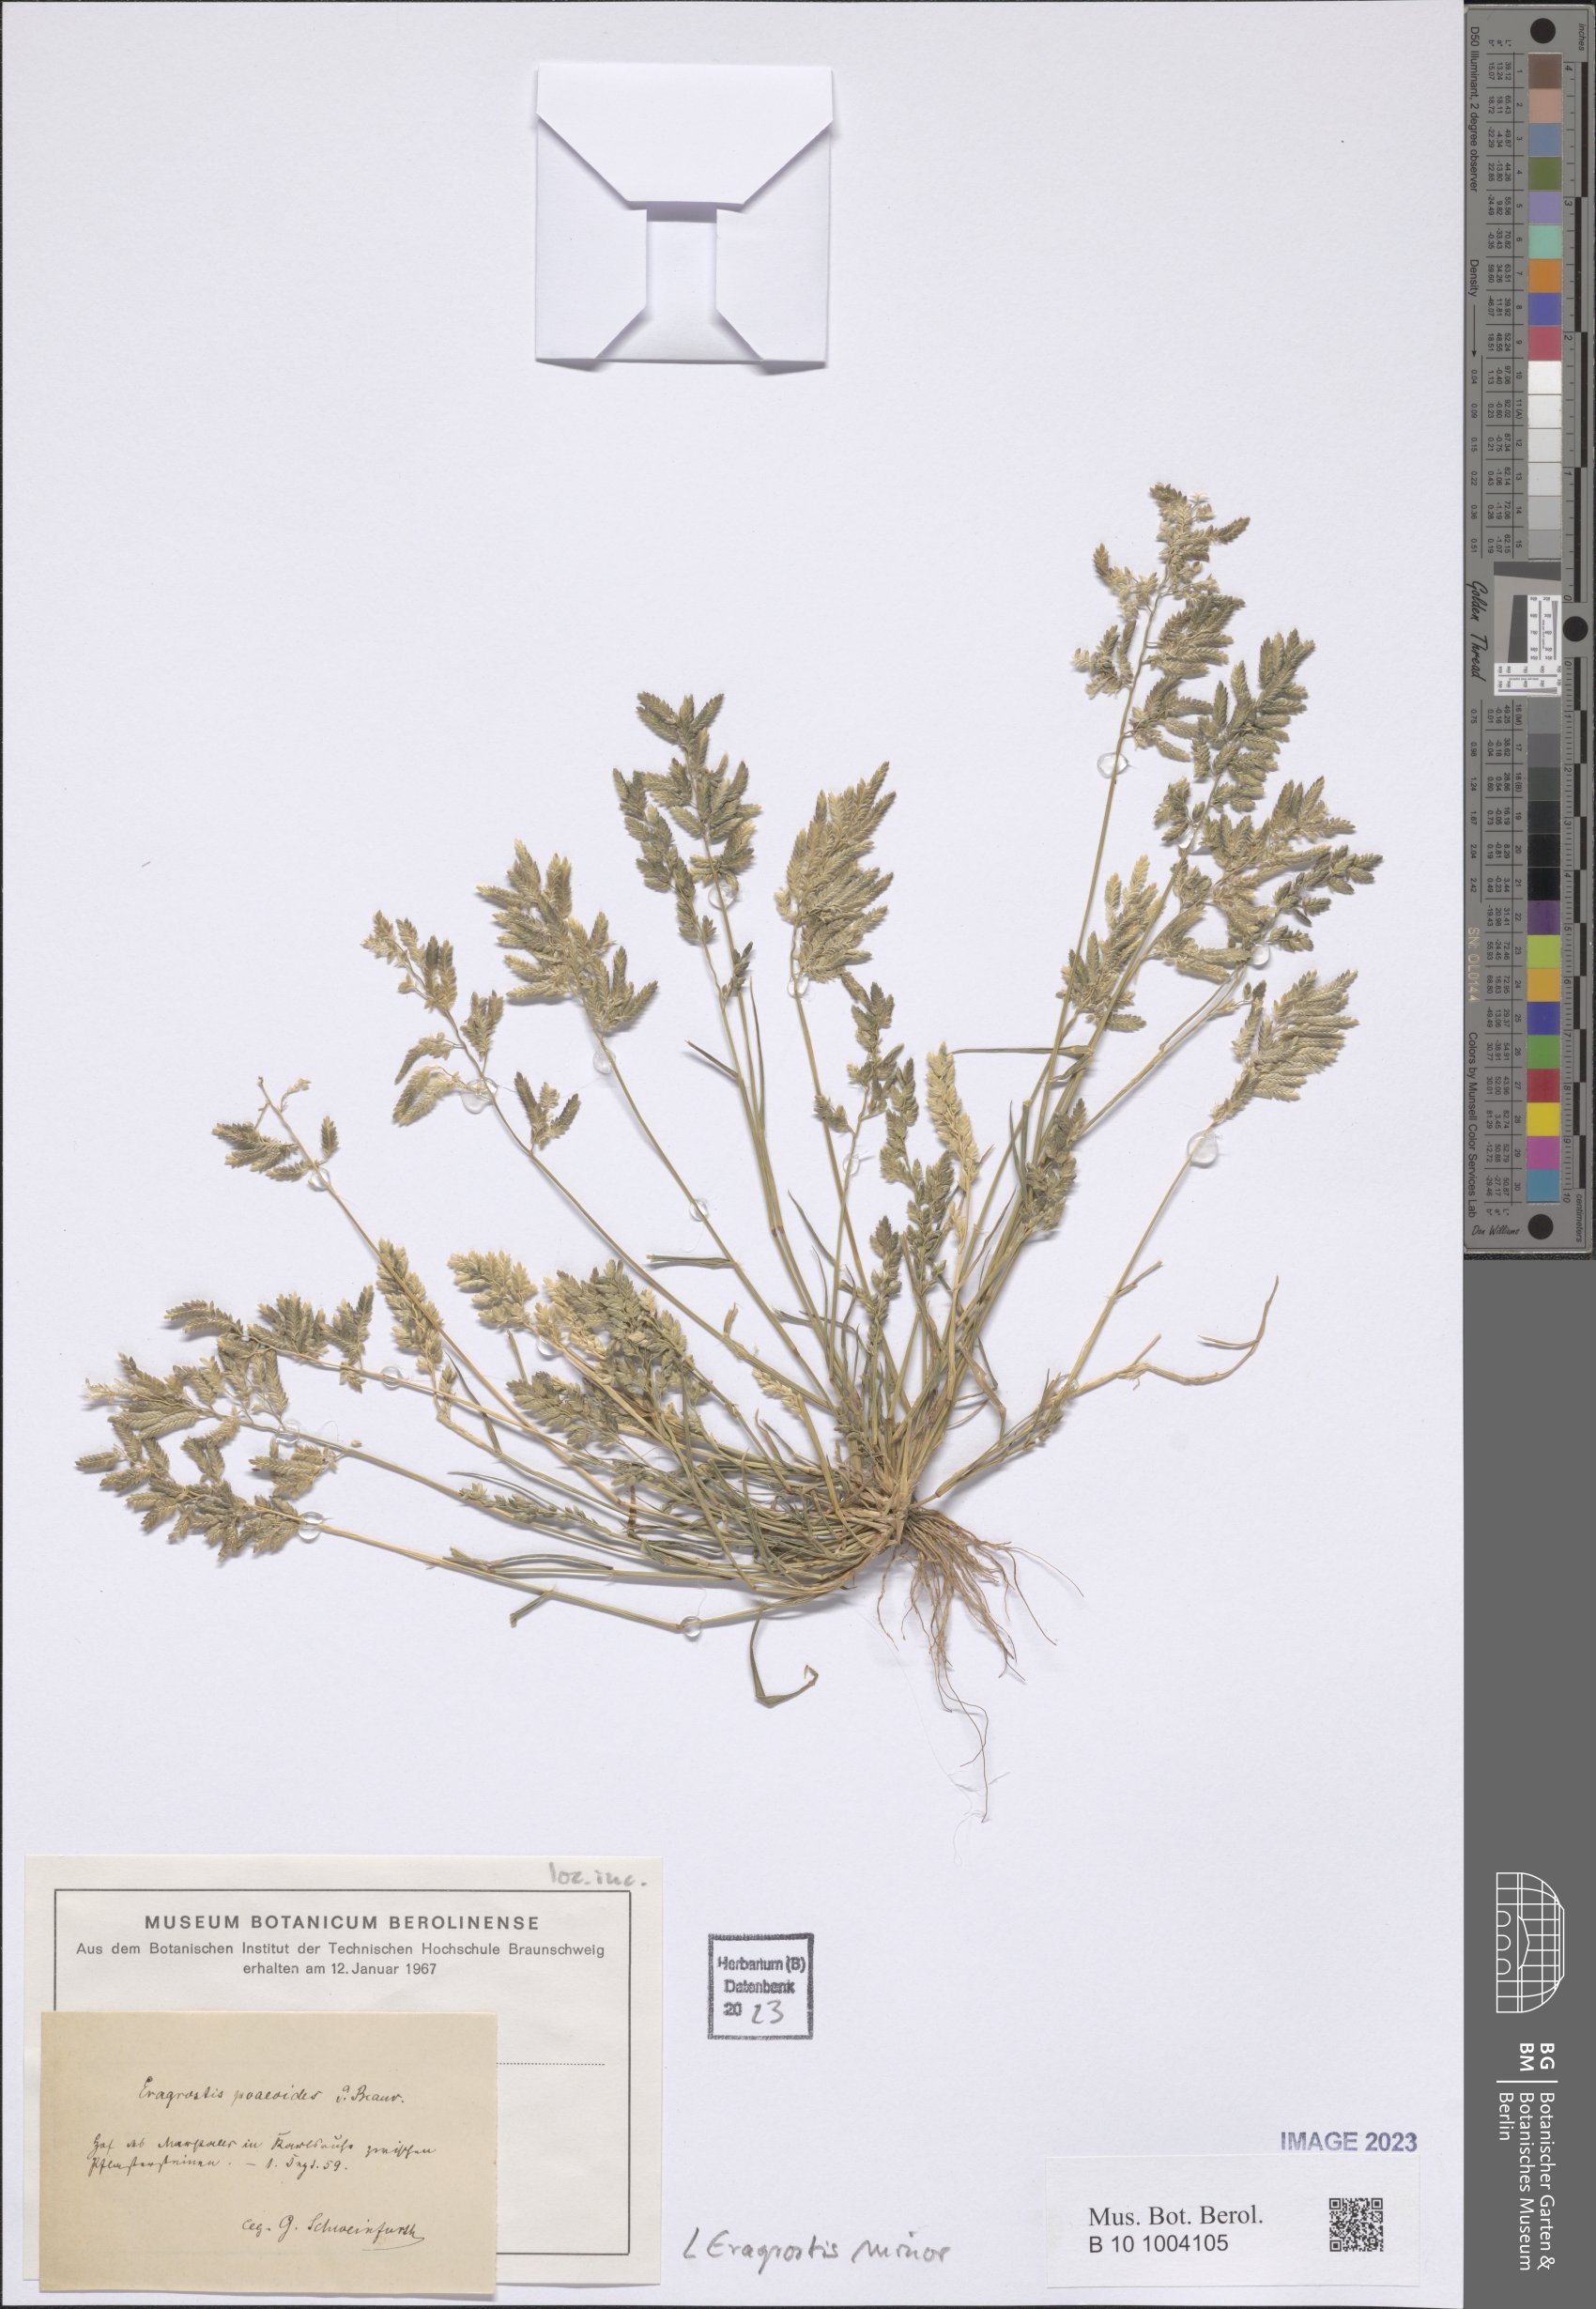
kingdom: Plantae
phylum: Tracheophyta
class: Liliopsida
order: Poales
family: Poaceae
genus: Eragrostis
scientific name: Eragrostis minor
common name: Small love-grass
